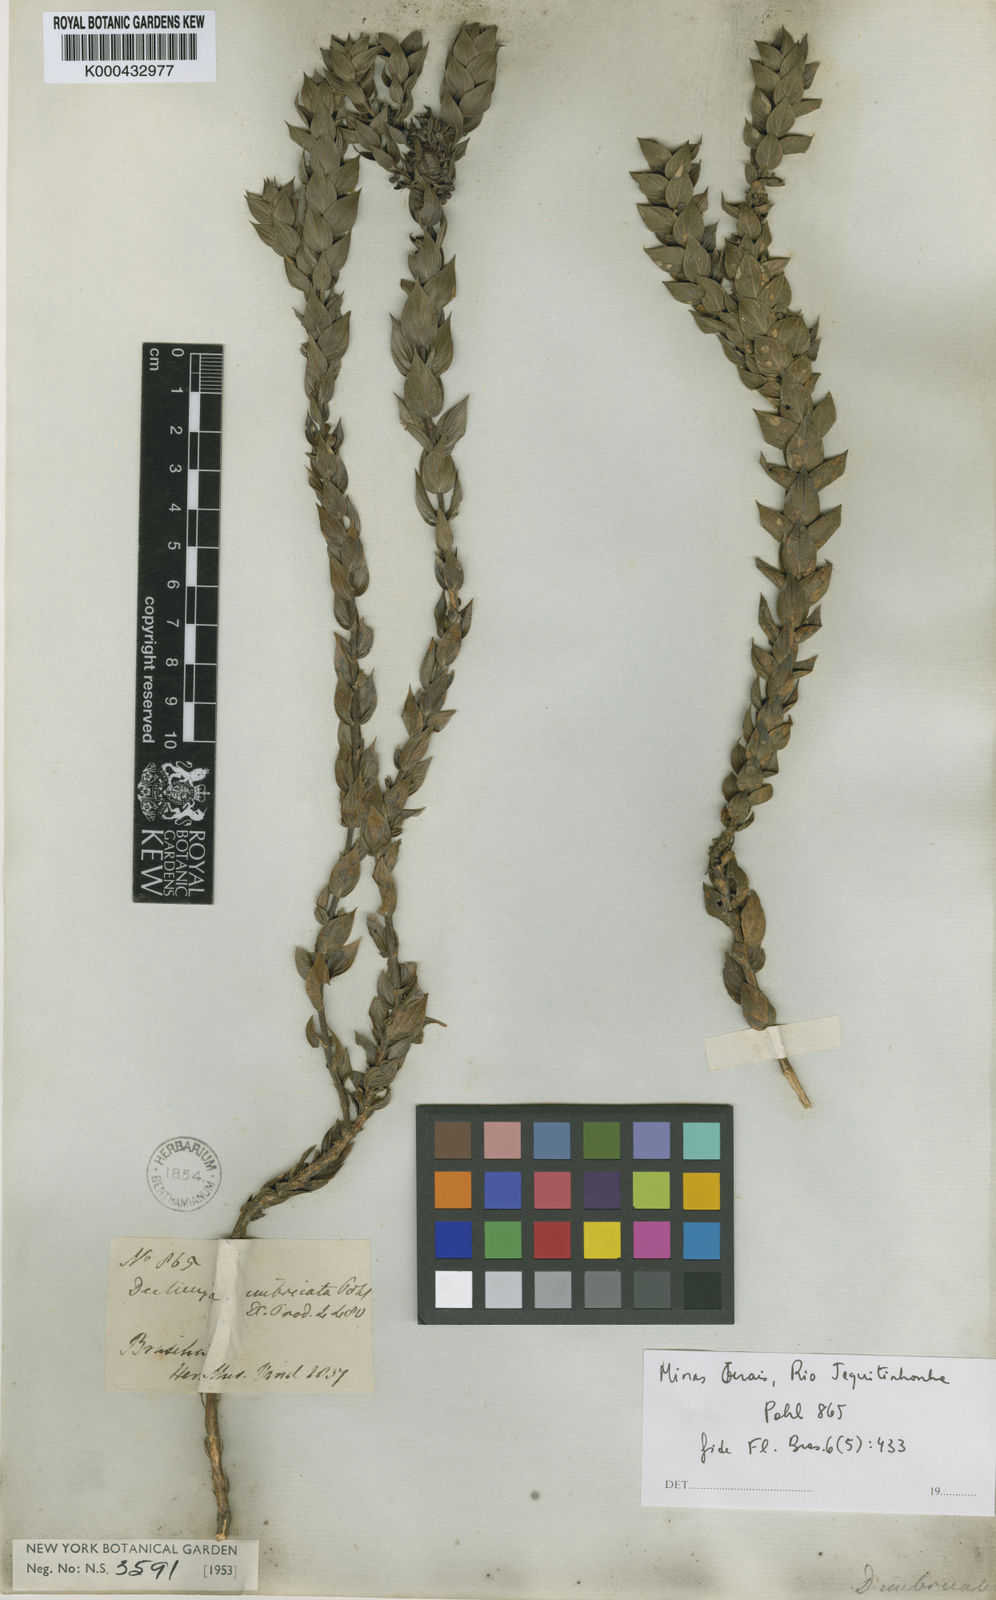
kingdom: Plantae
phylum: Tracheophyta
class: Magnoliopsida
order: Gentianales
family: Rubiaceae
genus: Declieuxia
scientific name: Declieuxia
